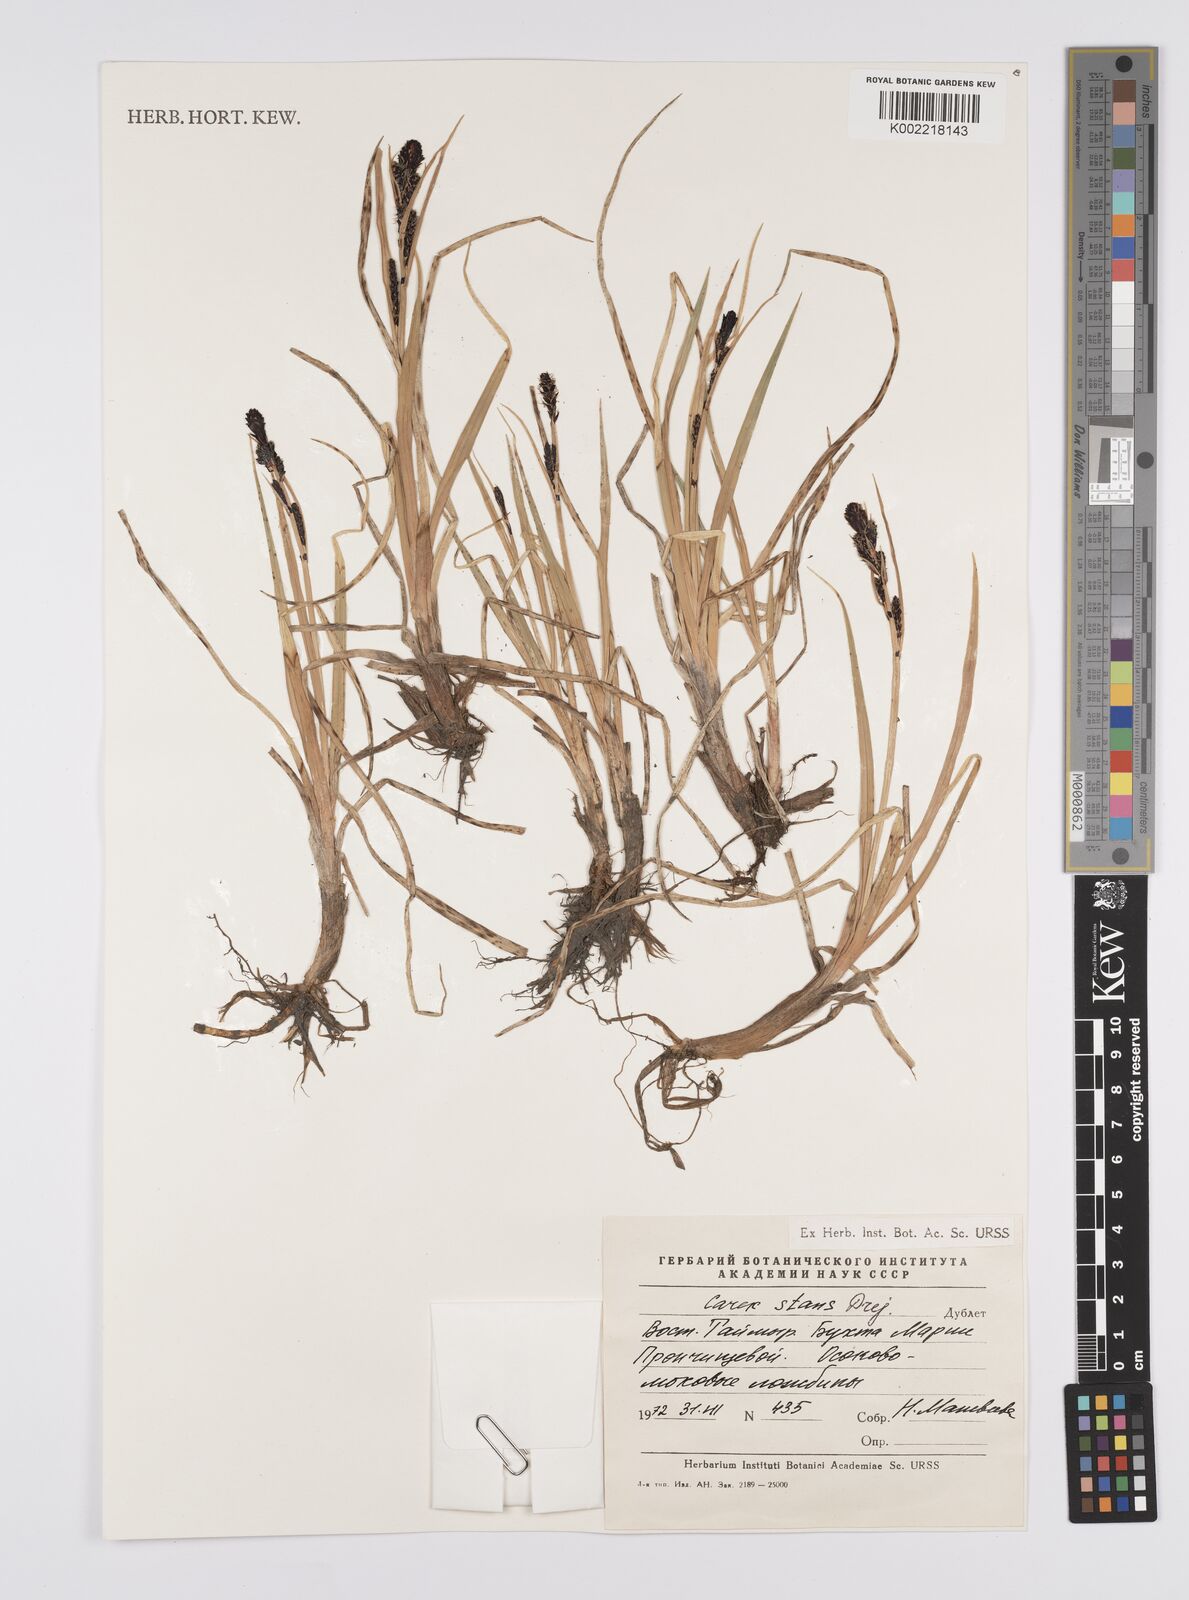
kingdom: Plantae
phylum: Tracheophyta
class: Liliopsida
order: Poales
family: Cyperaceae
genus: Carex
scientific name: Carex aquatilis
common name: Water sedge
